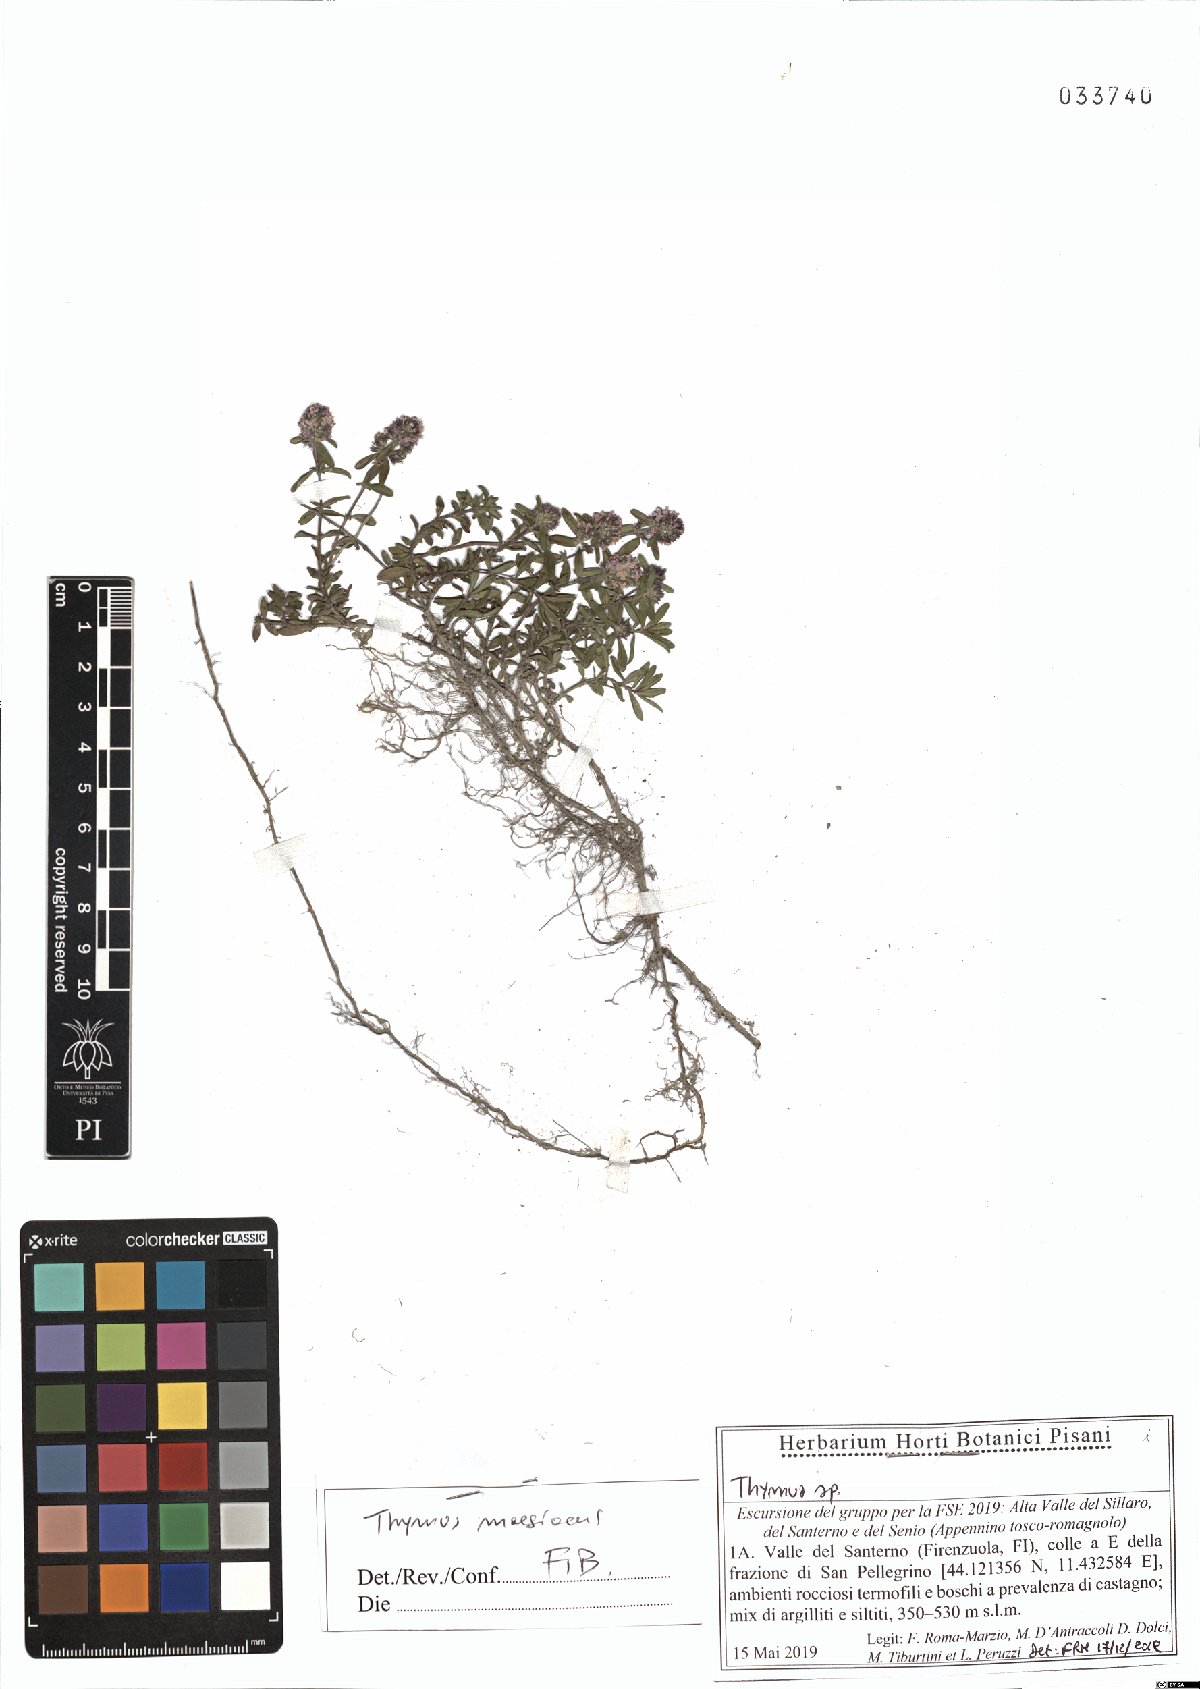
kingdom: Plantae
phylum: Tracheophyta
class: Magnoliopsida
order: Lamiales
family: Lamiaceae
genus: Thymus
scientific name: Thymus longicaulis
